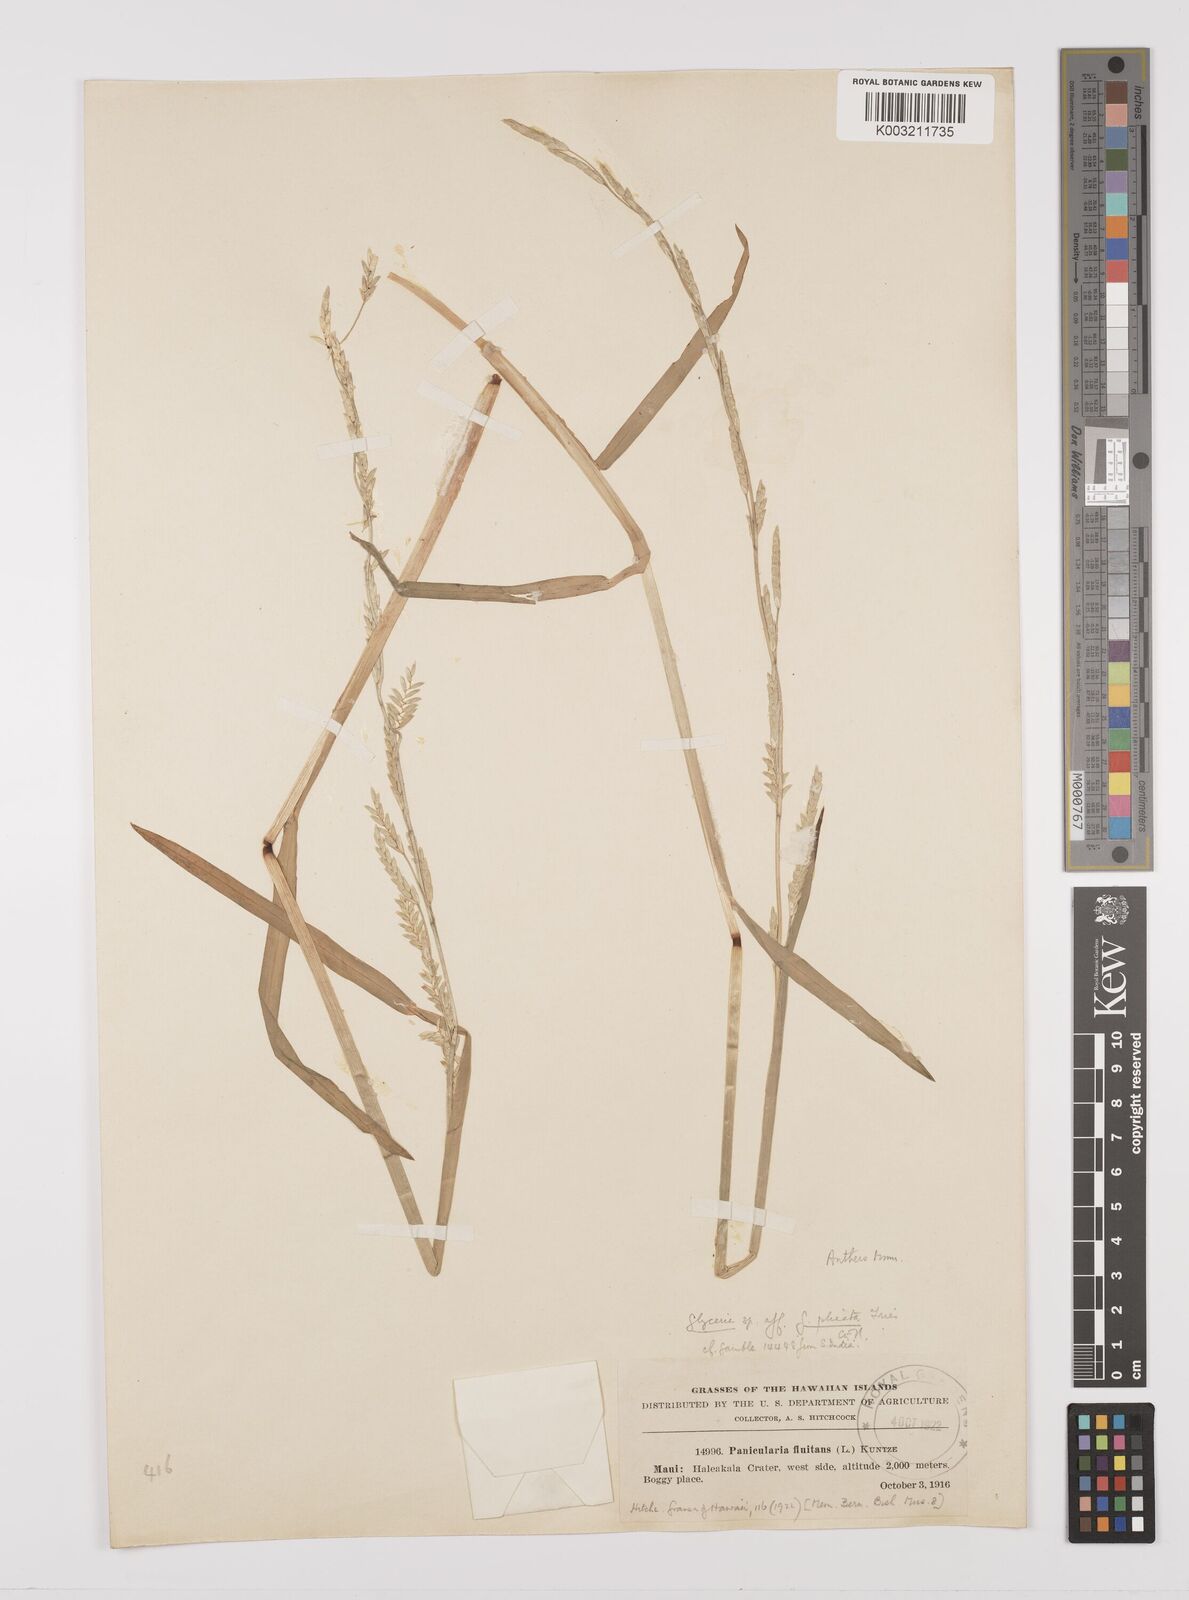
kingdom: Plantae
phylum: Tracheophyta
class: Liliopsida
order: Poales
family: Poaceae
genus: Glyceria
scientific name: Glyceria notata
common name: Plicate sweet-grass
